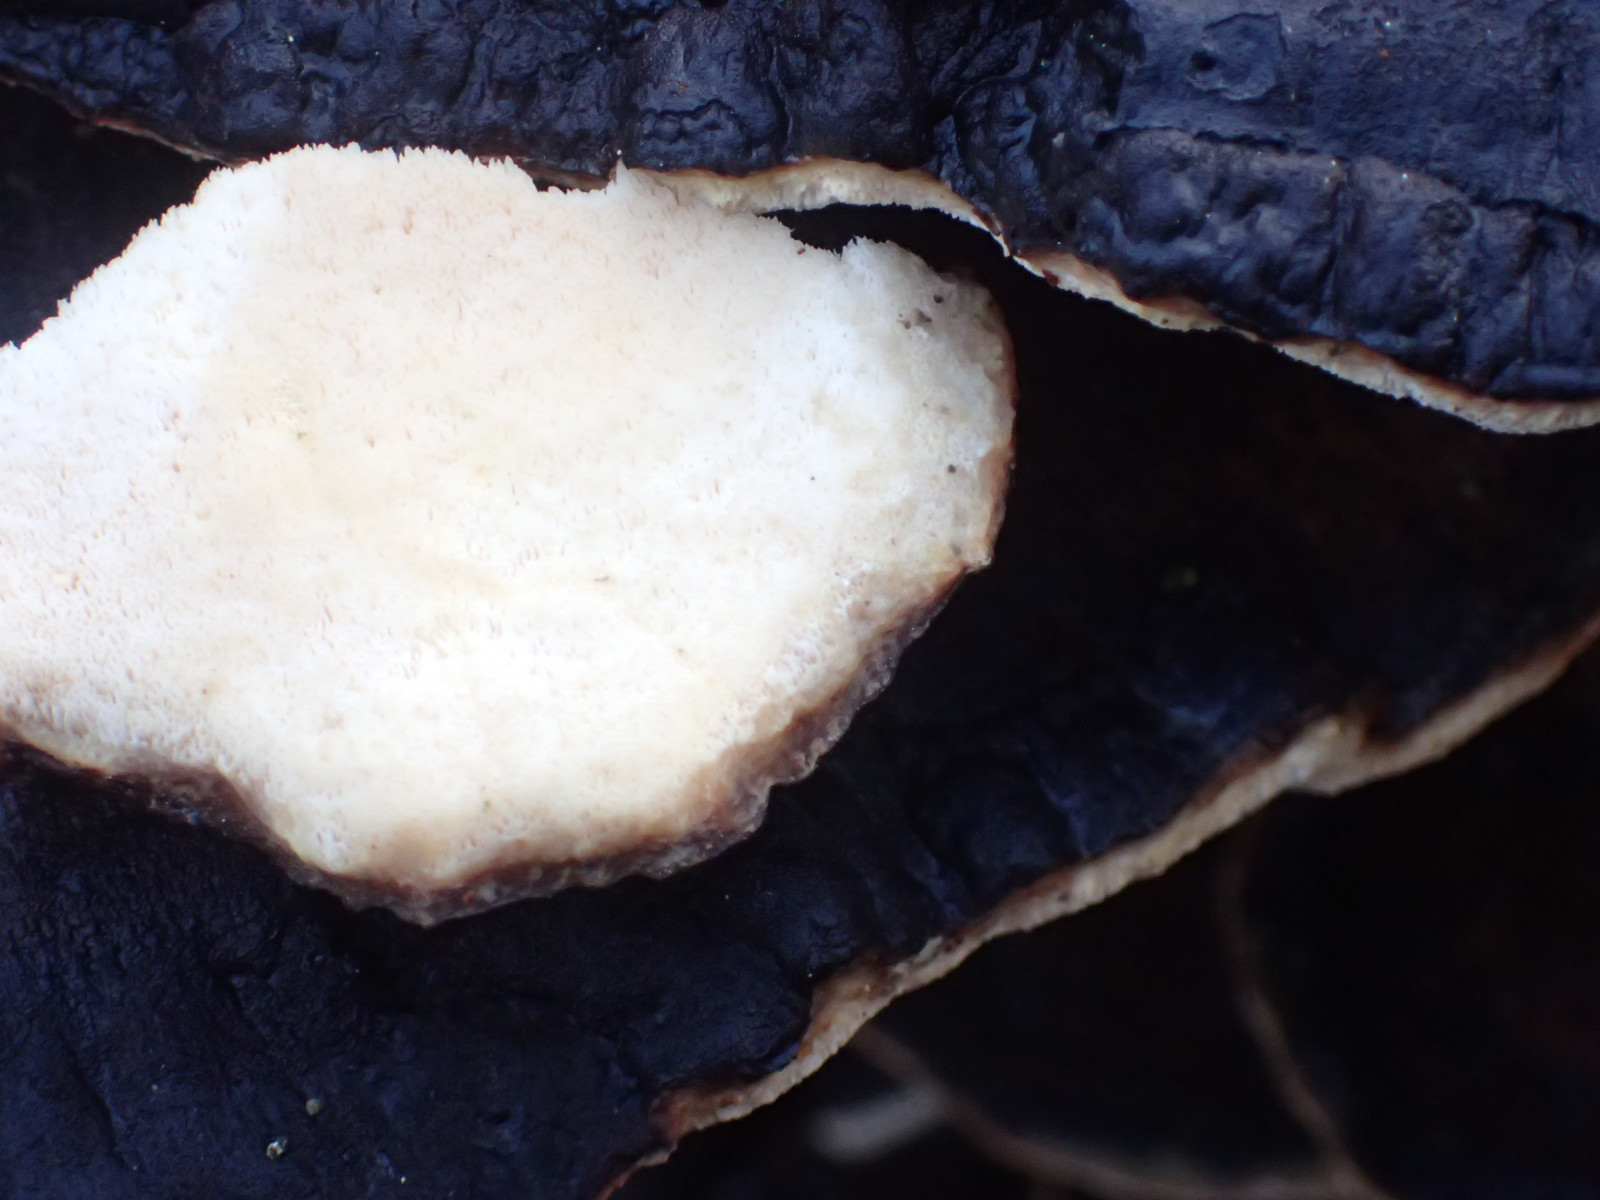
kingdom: Fungi
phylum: Basidiomycota
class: Agaricomycetes
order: Polyporales
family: Ischnodermataceae
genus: Ischnoderma
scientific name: Ischnoderma
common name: tjæreporesvamp
